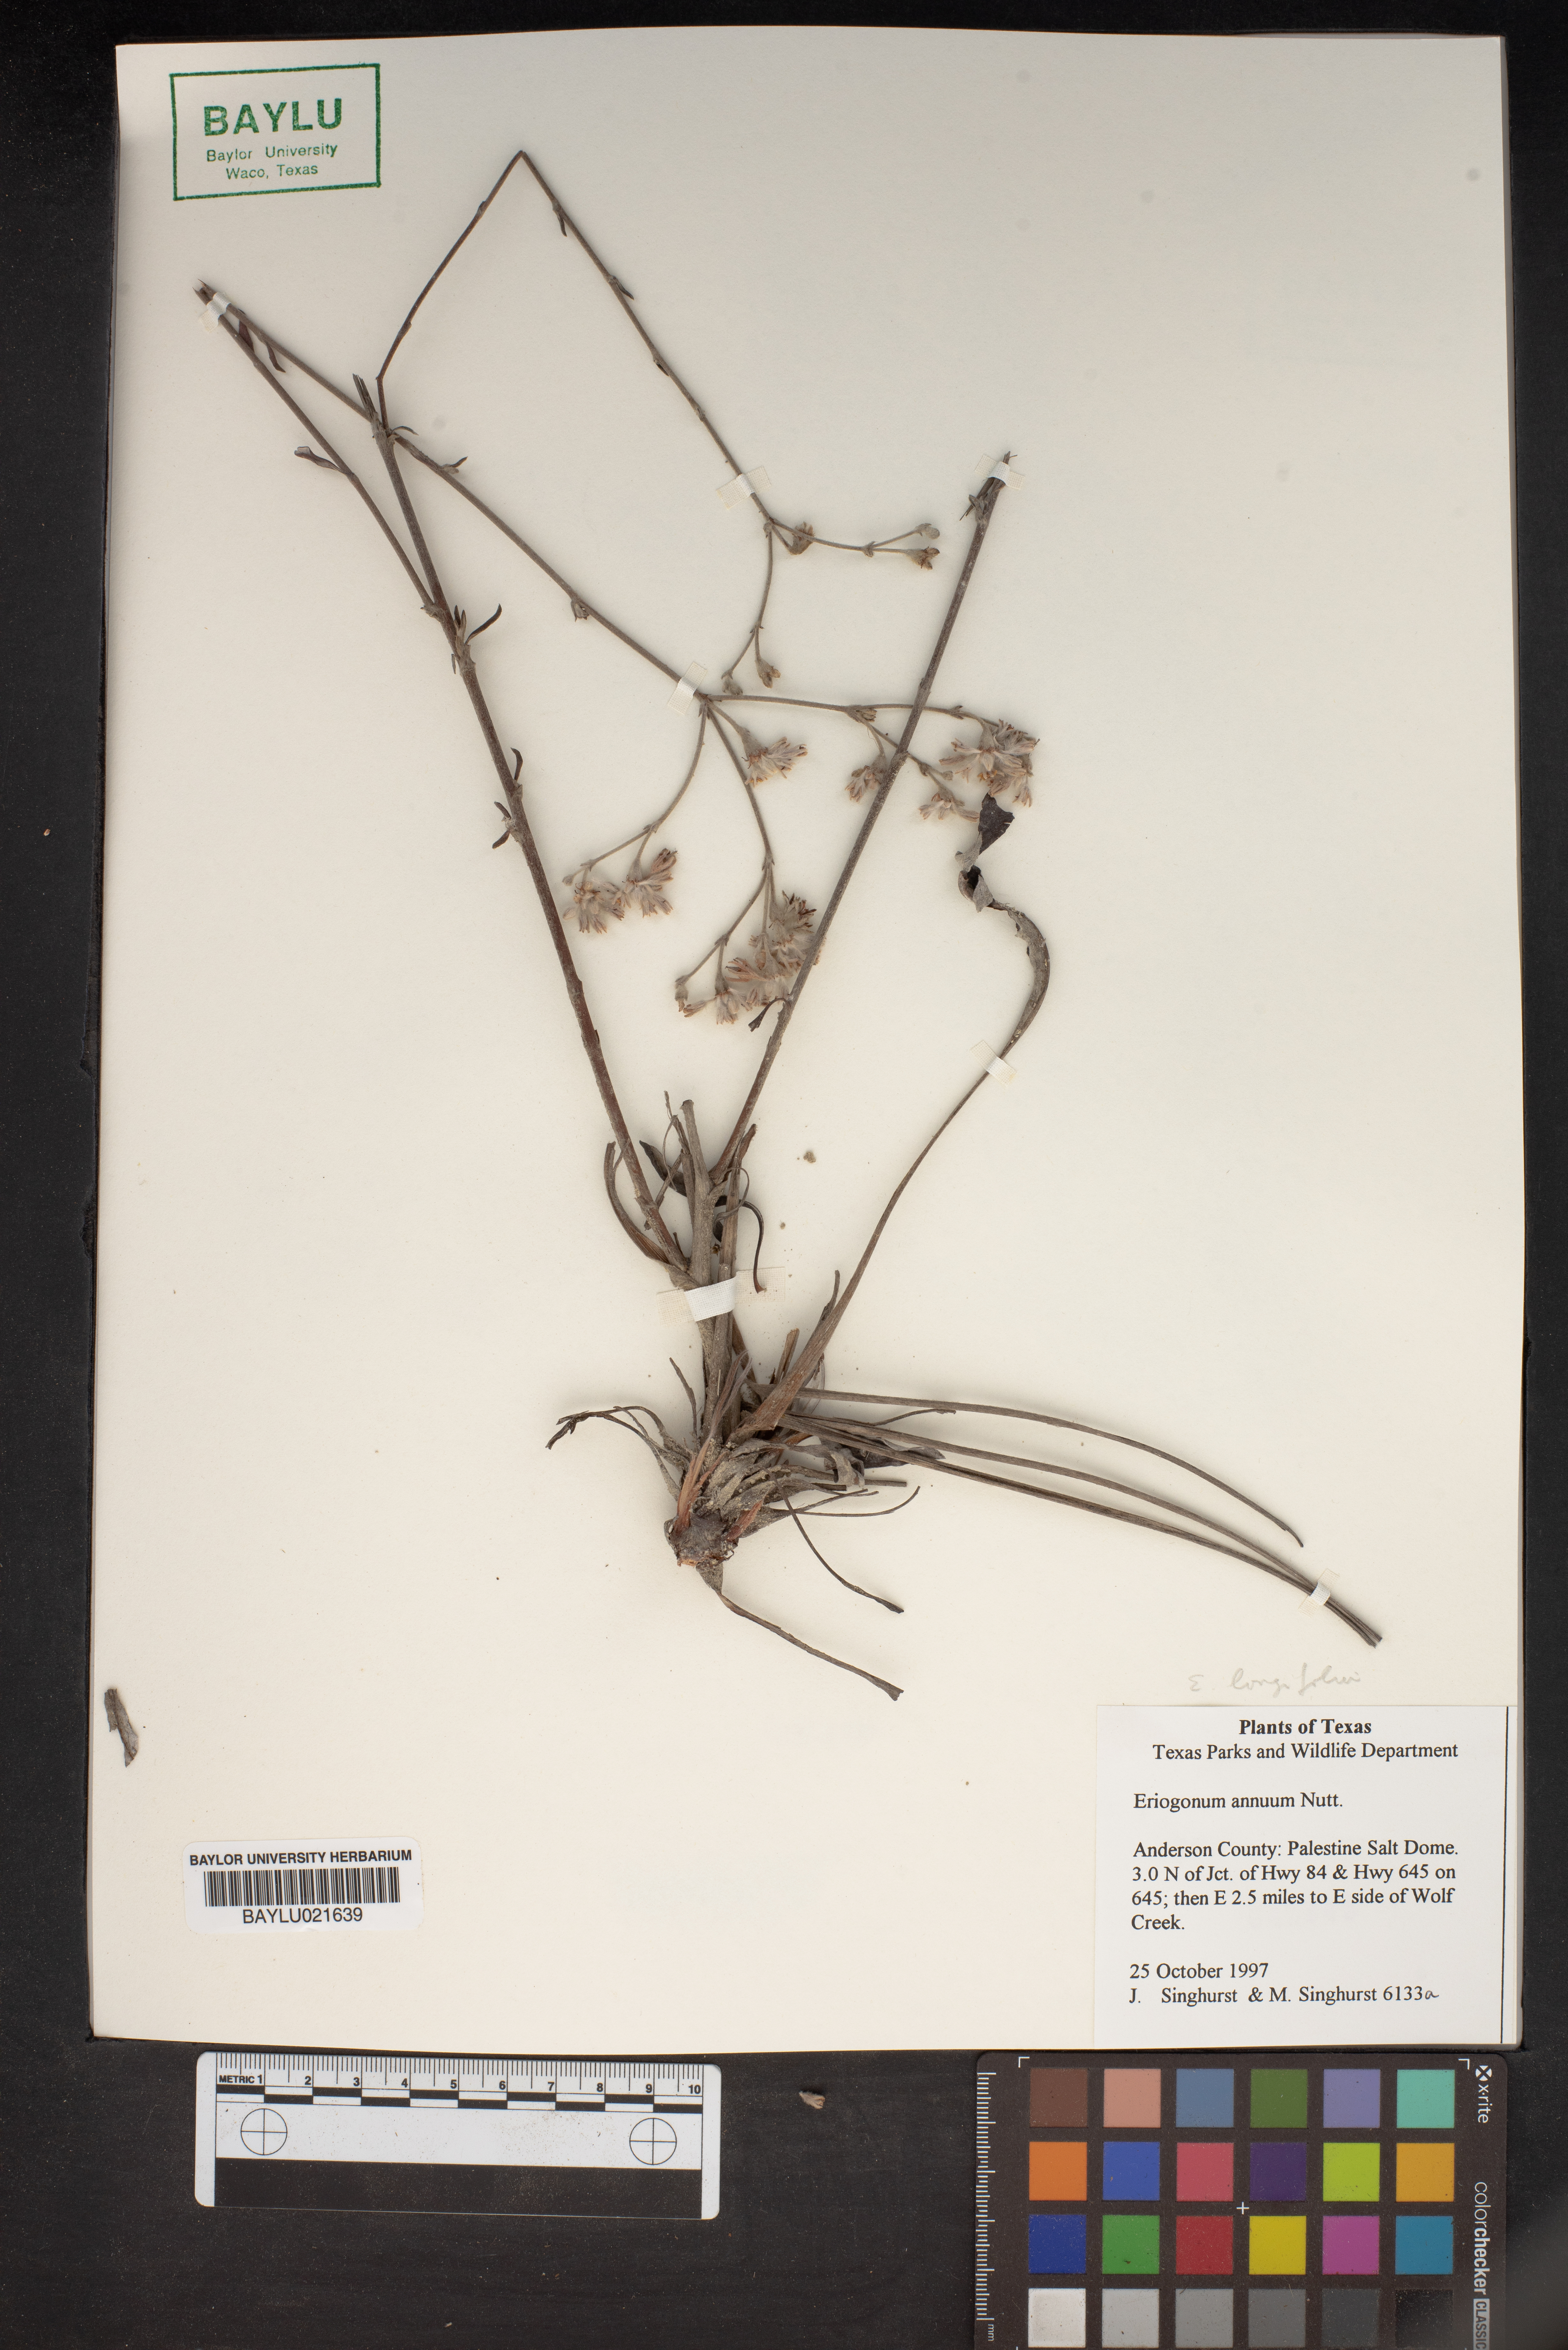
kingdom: Plantae
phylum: Tracheophyta
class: Magnoliopsida
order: Caryophyllales
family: Polygonaceae
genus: Eriogonum
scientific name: Eriogonum annuum
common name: Annual wild buckwheat
